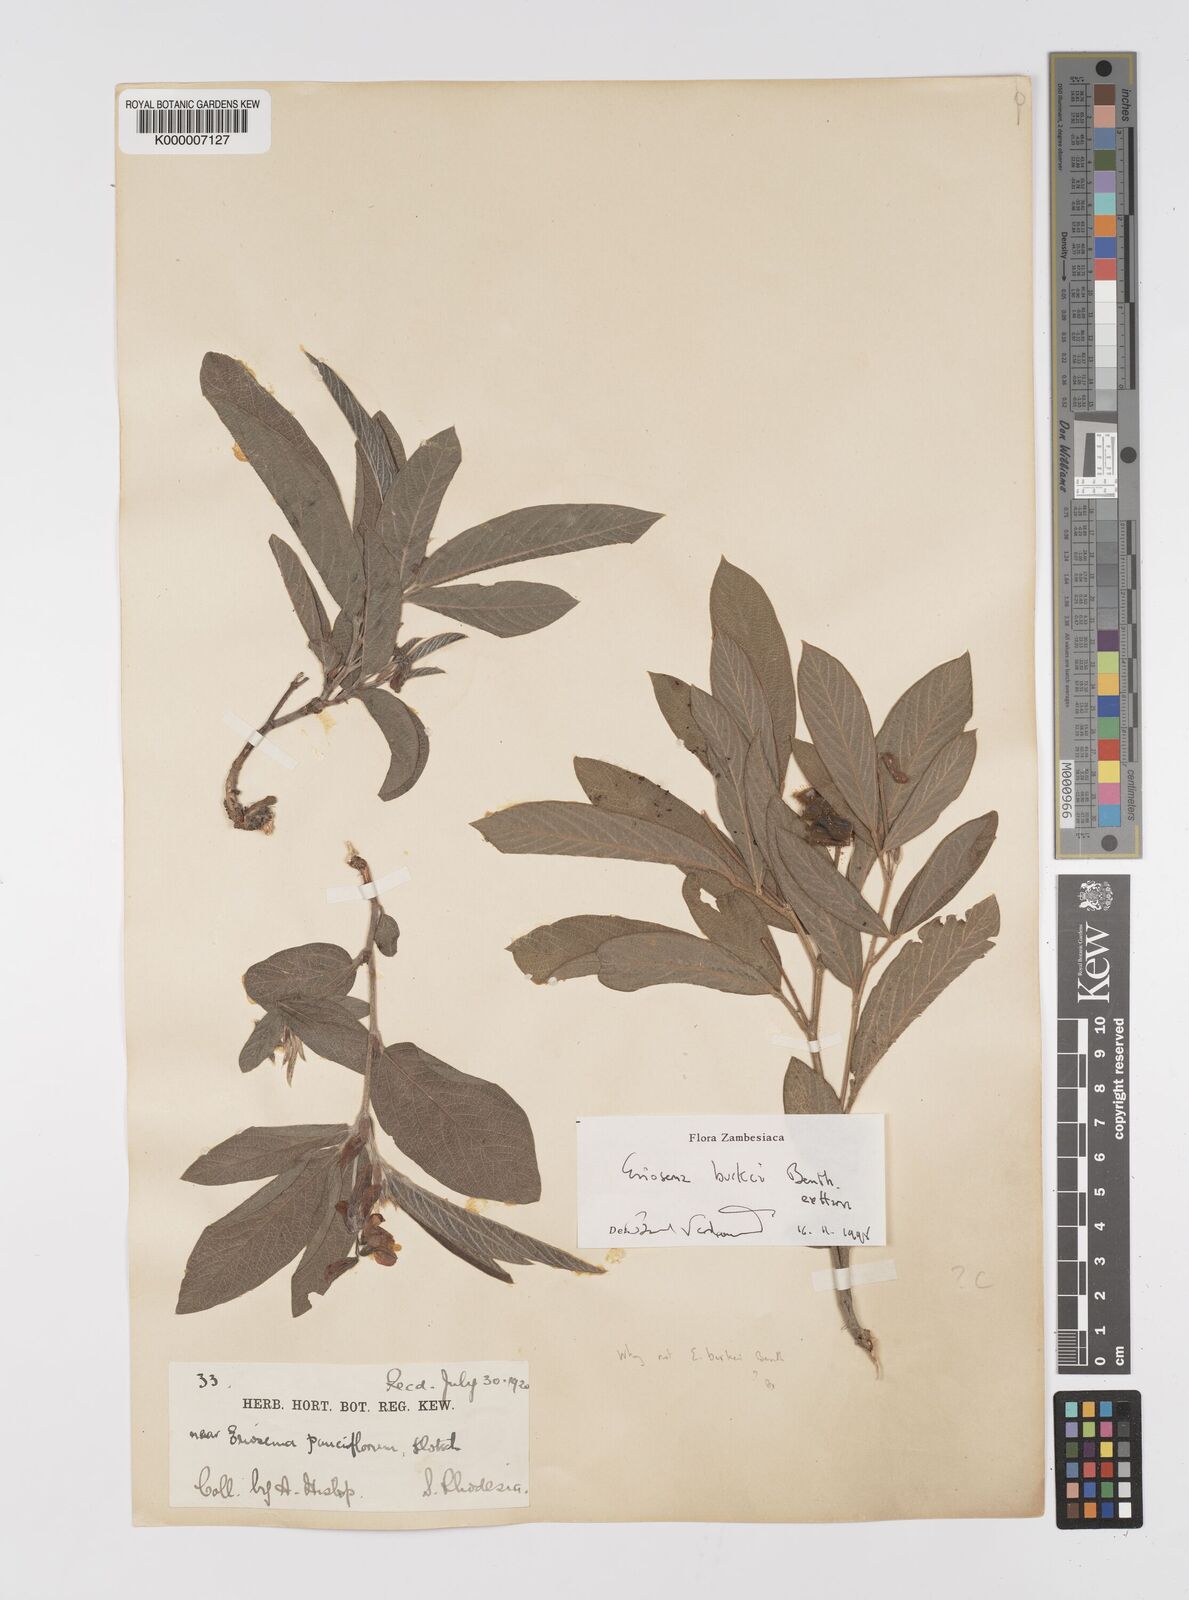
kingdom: Plantae
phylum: Tracheophyta
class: Magnoliopsida
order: Fabales
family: Fabaceae
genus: Eriosema
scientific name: Eriosema burkei
